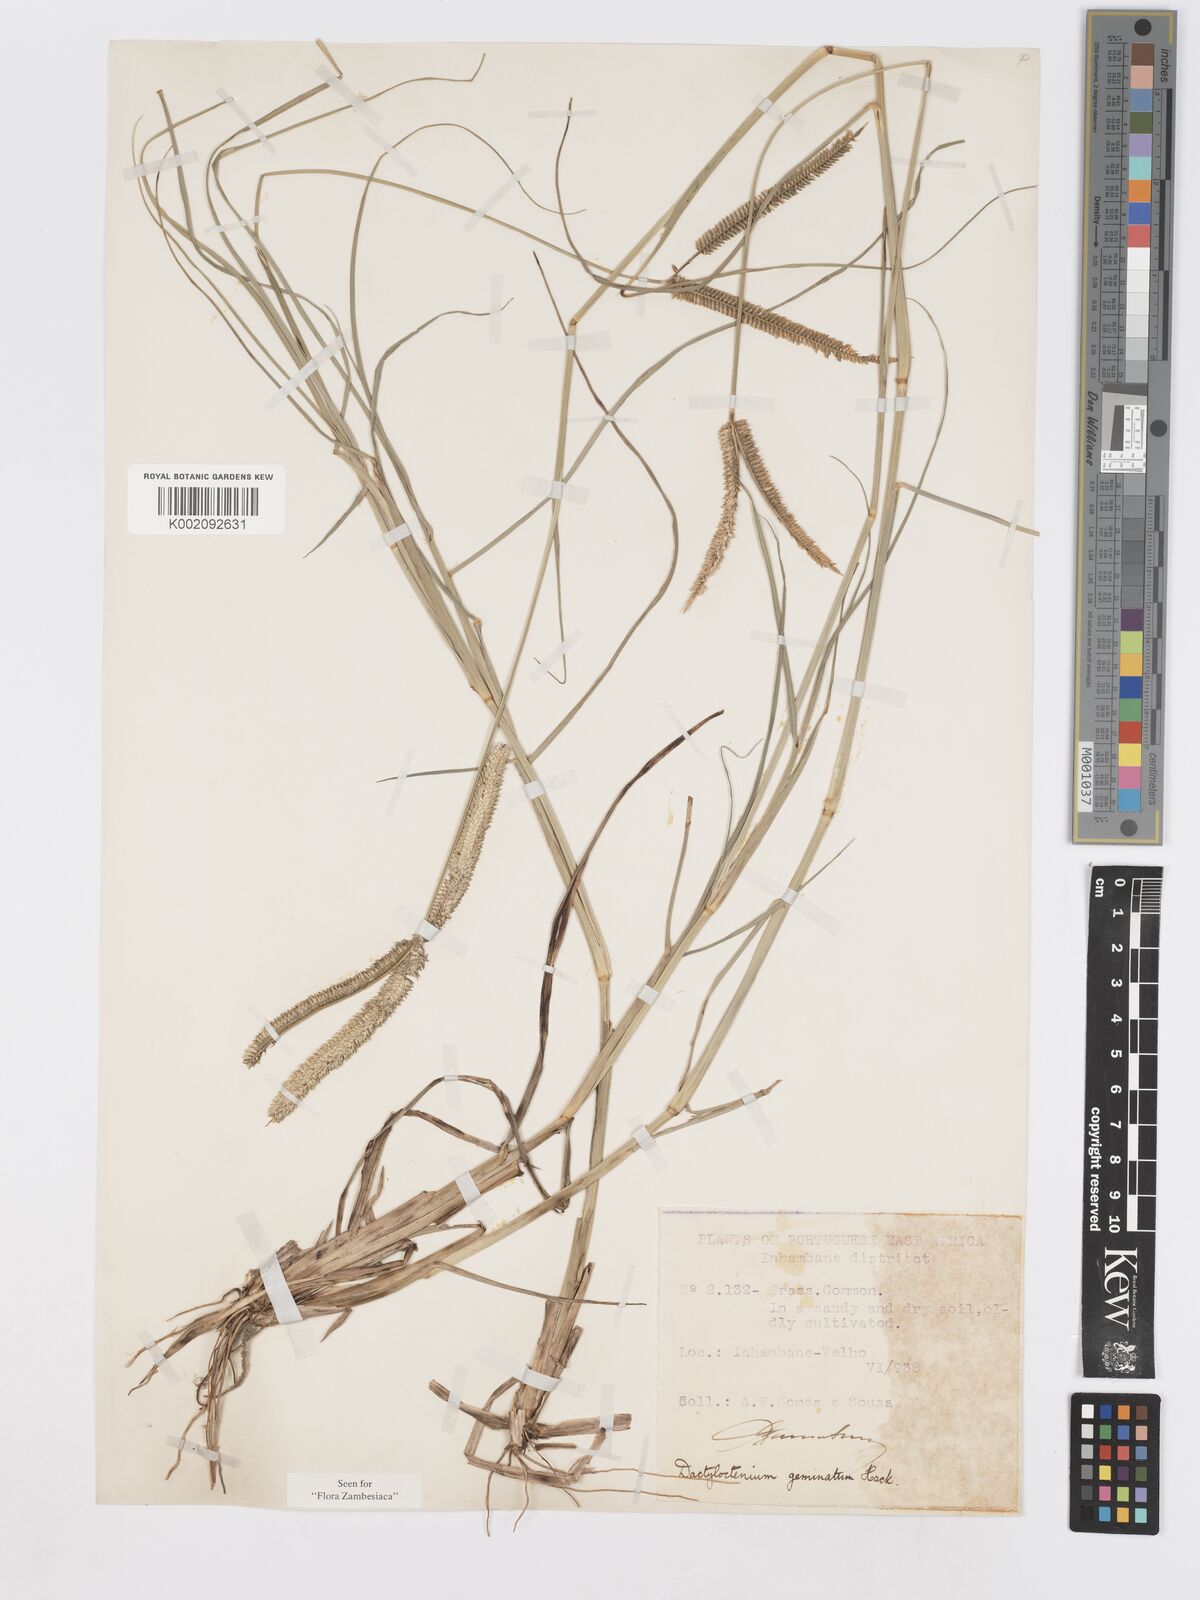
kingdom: Plantae
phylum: Tracheophyta
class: Liliopsida
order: Poales
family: Poaceae
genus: Dactyloctenium
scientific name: Dactyloctenium geminatum
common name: Crowsfoot grass
